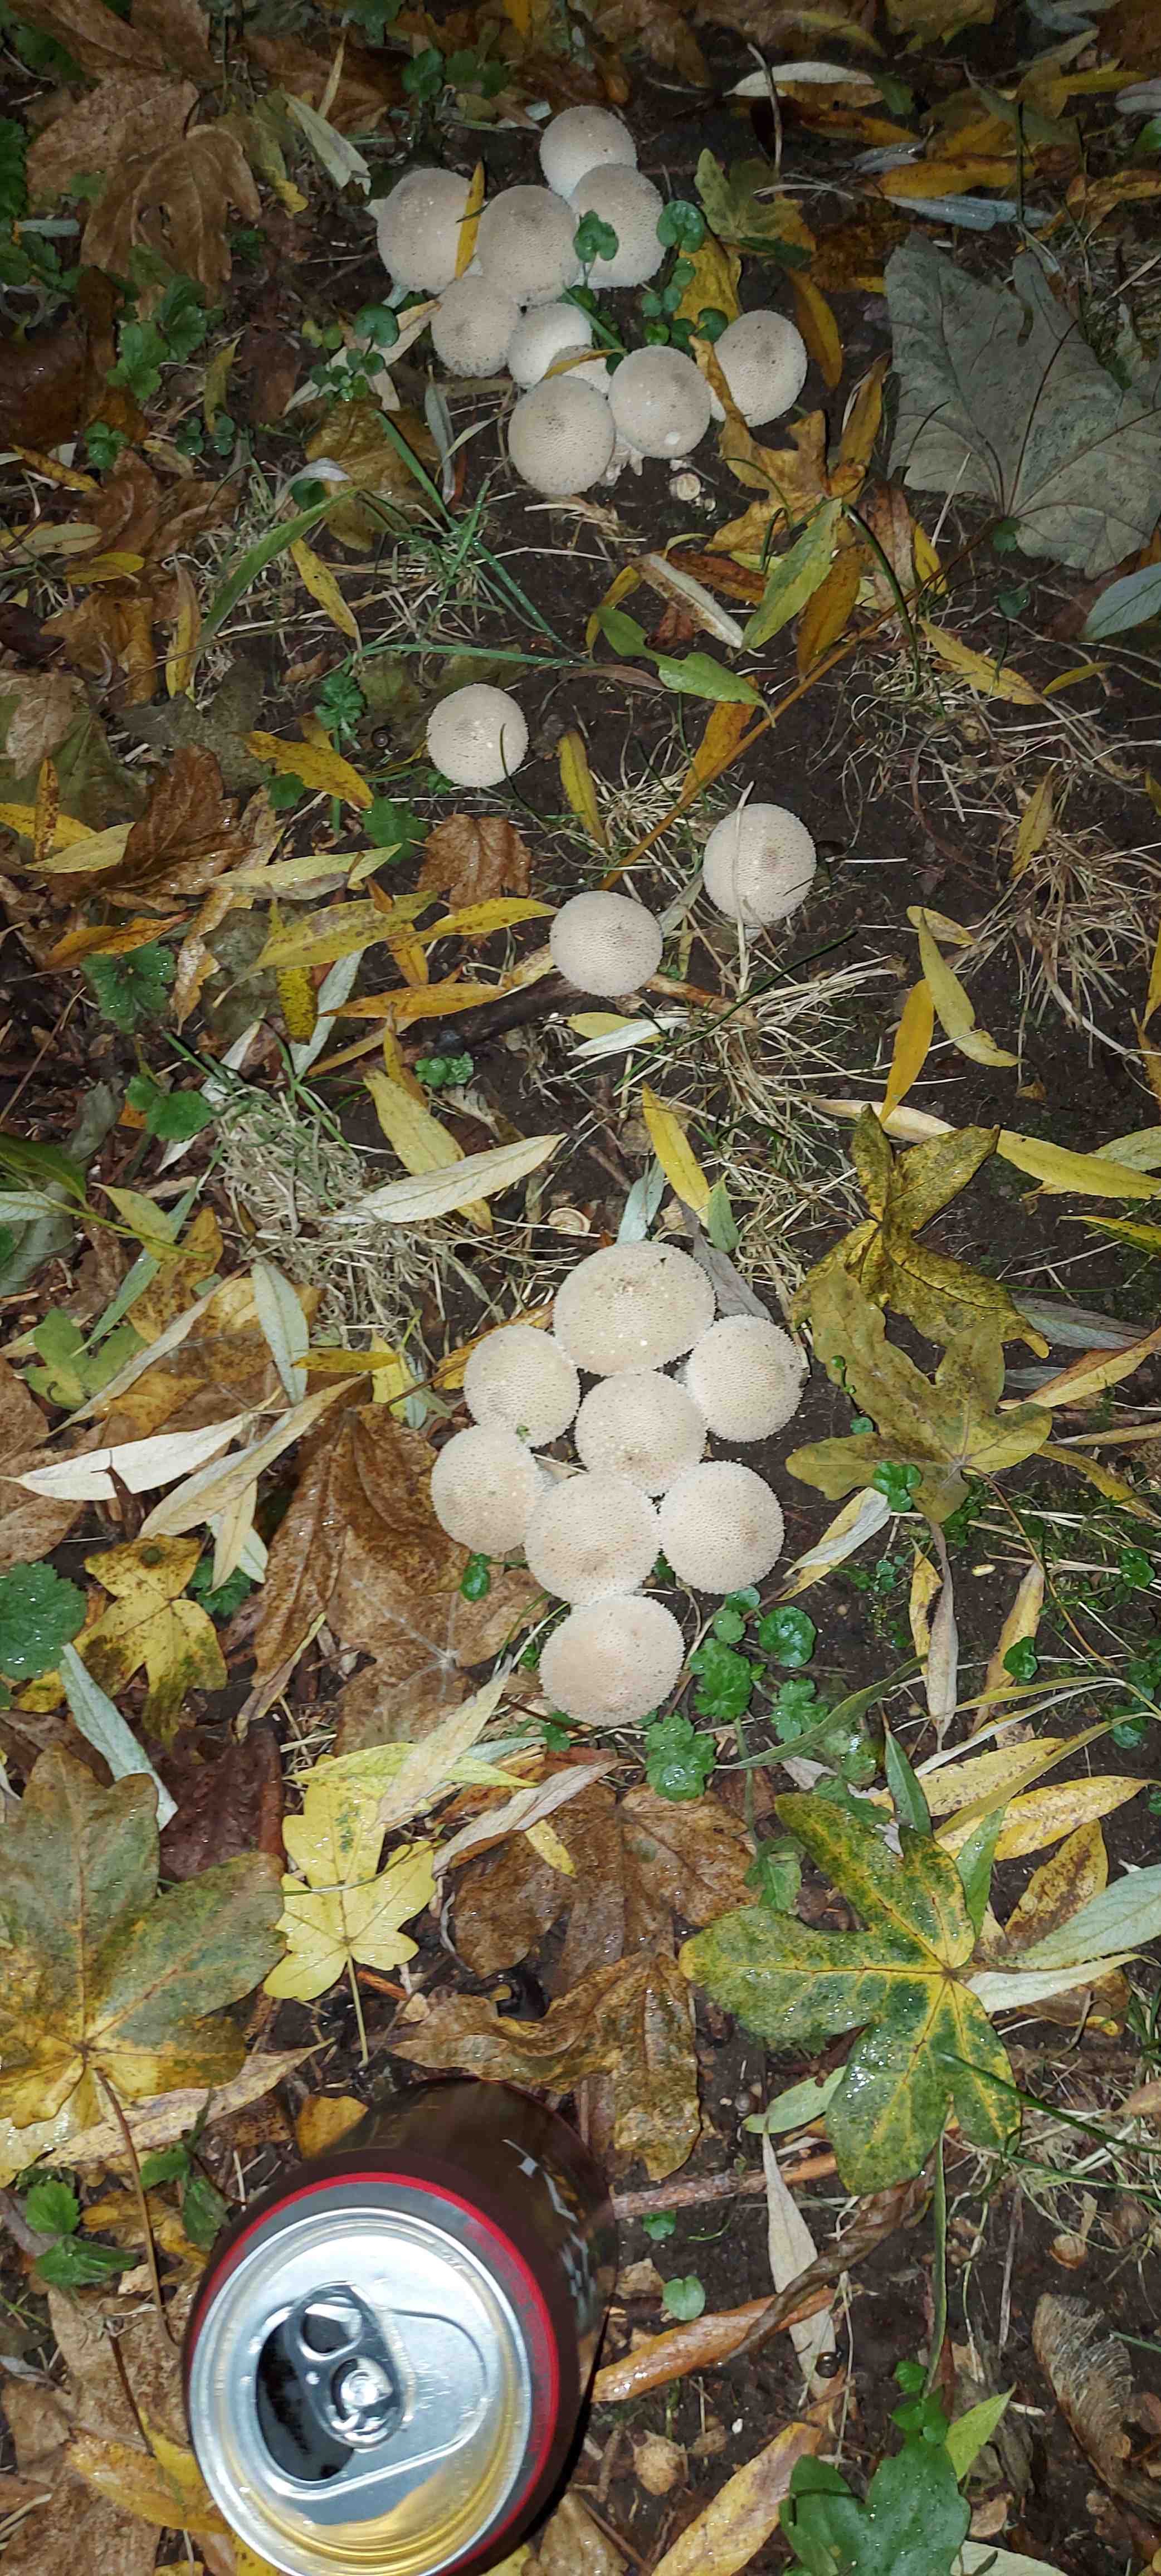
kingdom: Fungi
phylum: Basidiomycota
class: Agaricomycetes
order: Agaricales
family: Lycoperdaceae
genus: Lycoperdon
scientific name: Lycoperdon perlatum
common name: krystal-støvbold
